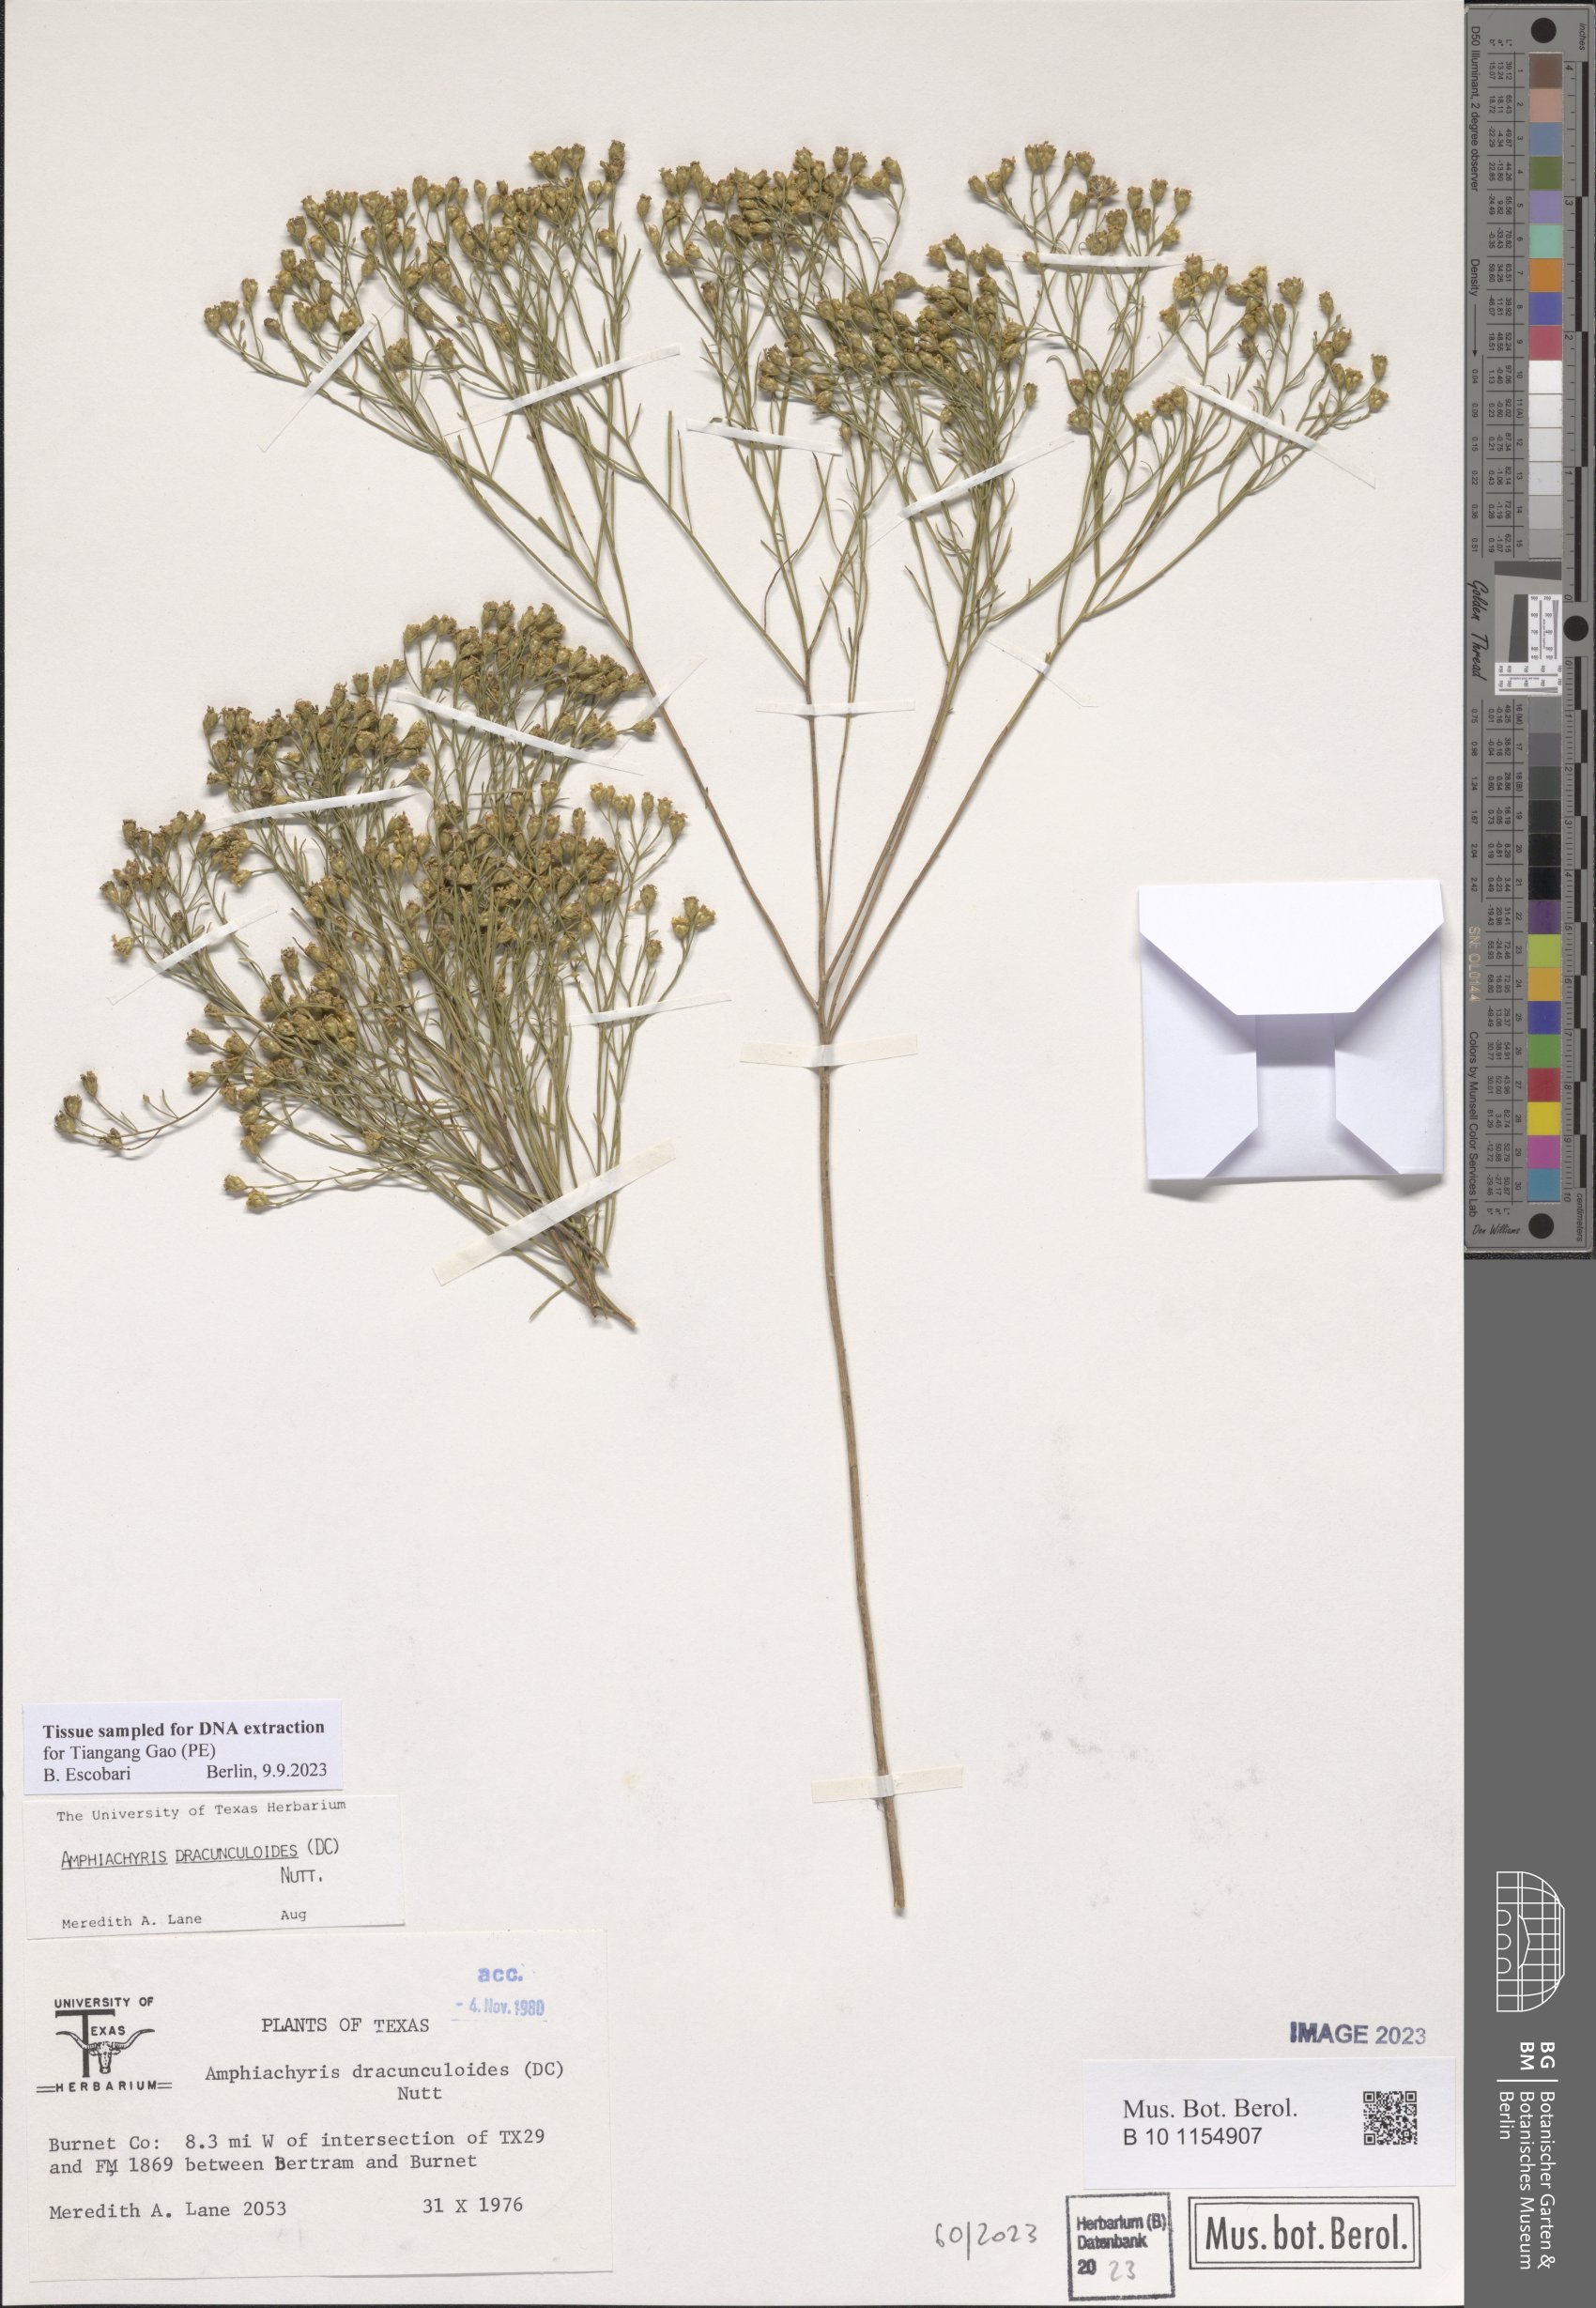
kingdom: Plantae
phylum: Tracheophyta
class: Magnoliopsida
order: Asterales
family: Asteraceae
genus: Amphiachyris
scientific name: Amphiachyris dracunculoides
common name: Broomweed
